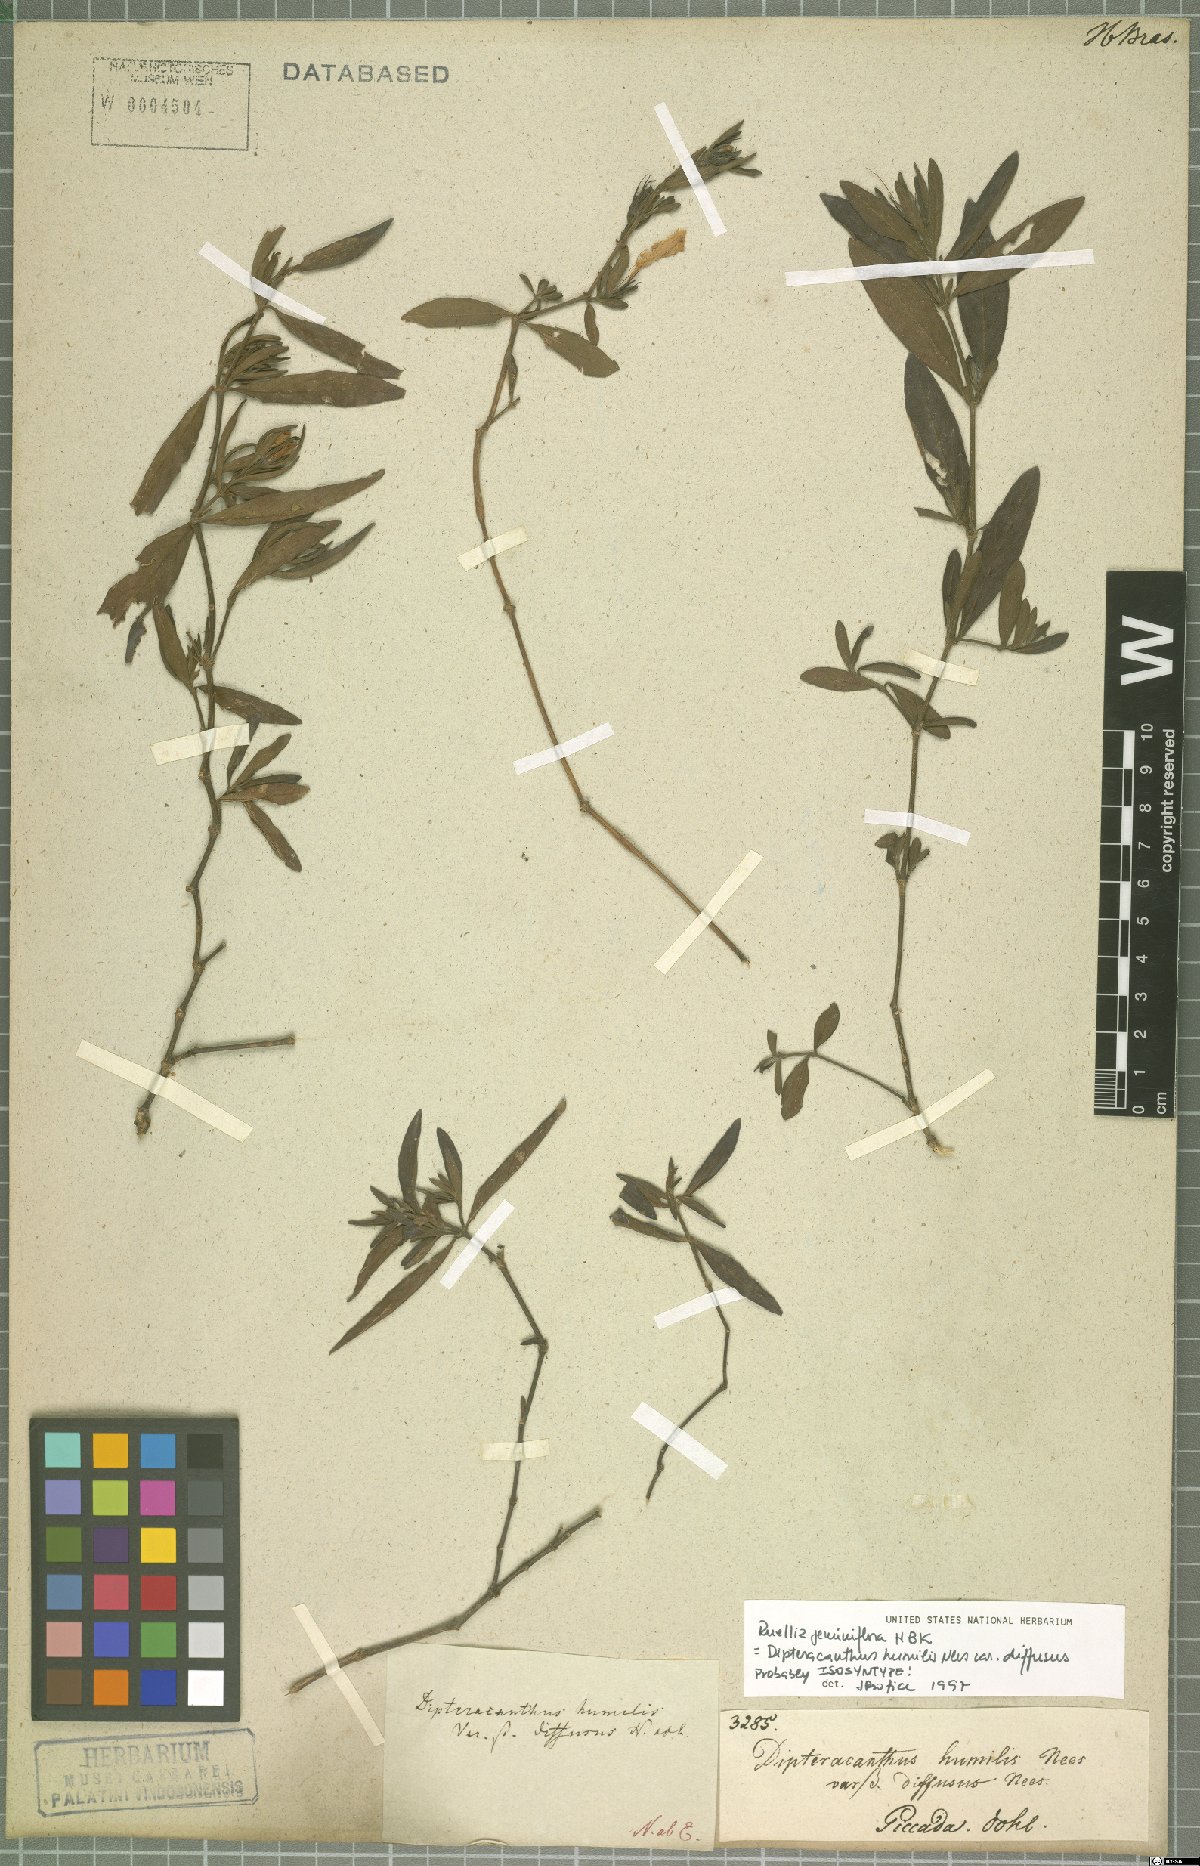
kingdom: Plantae
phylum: Tracheophyta
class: Magnoliopsida
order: Lamiales
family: Acanthaceae
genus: Ruellia
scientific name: Ruellia geminiflora
